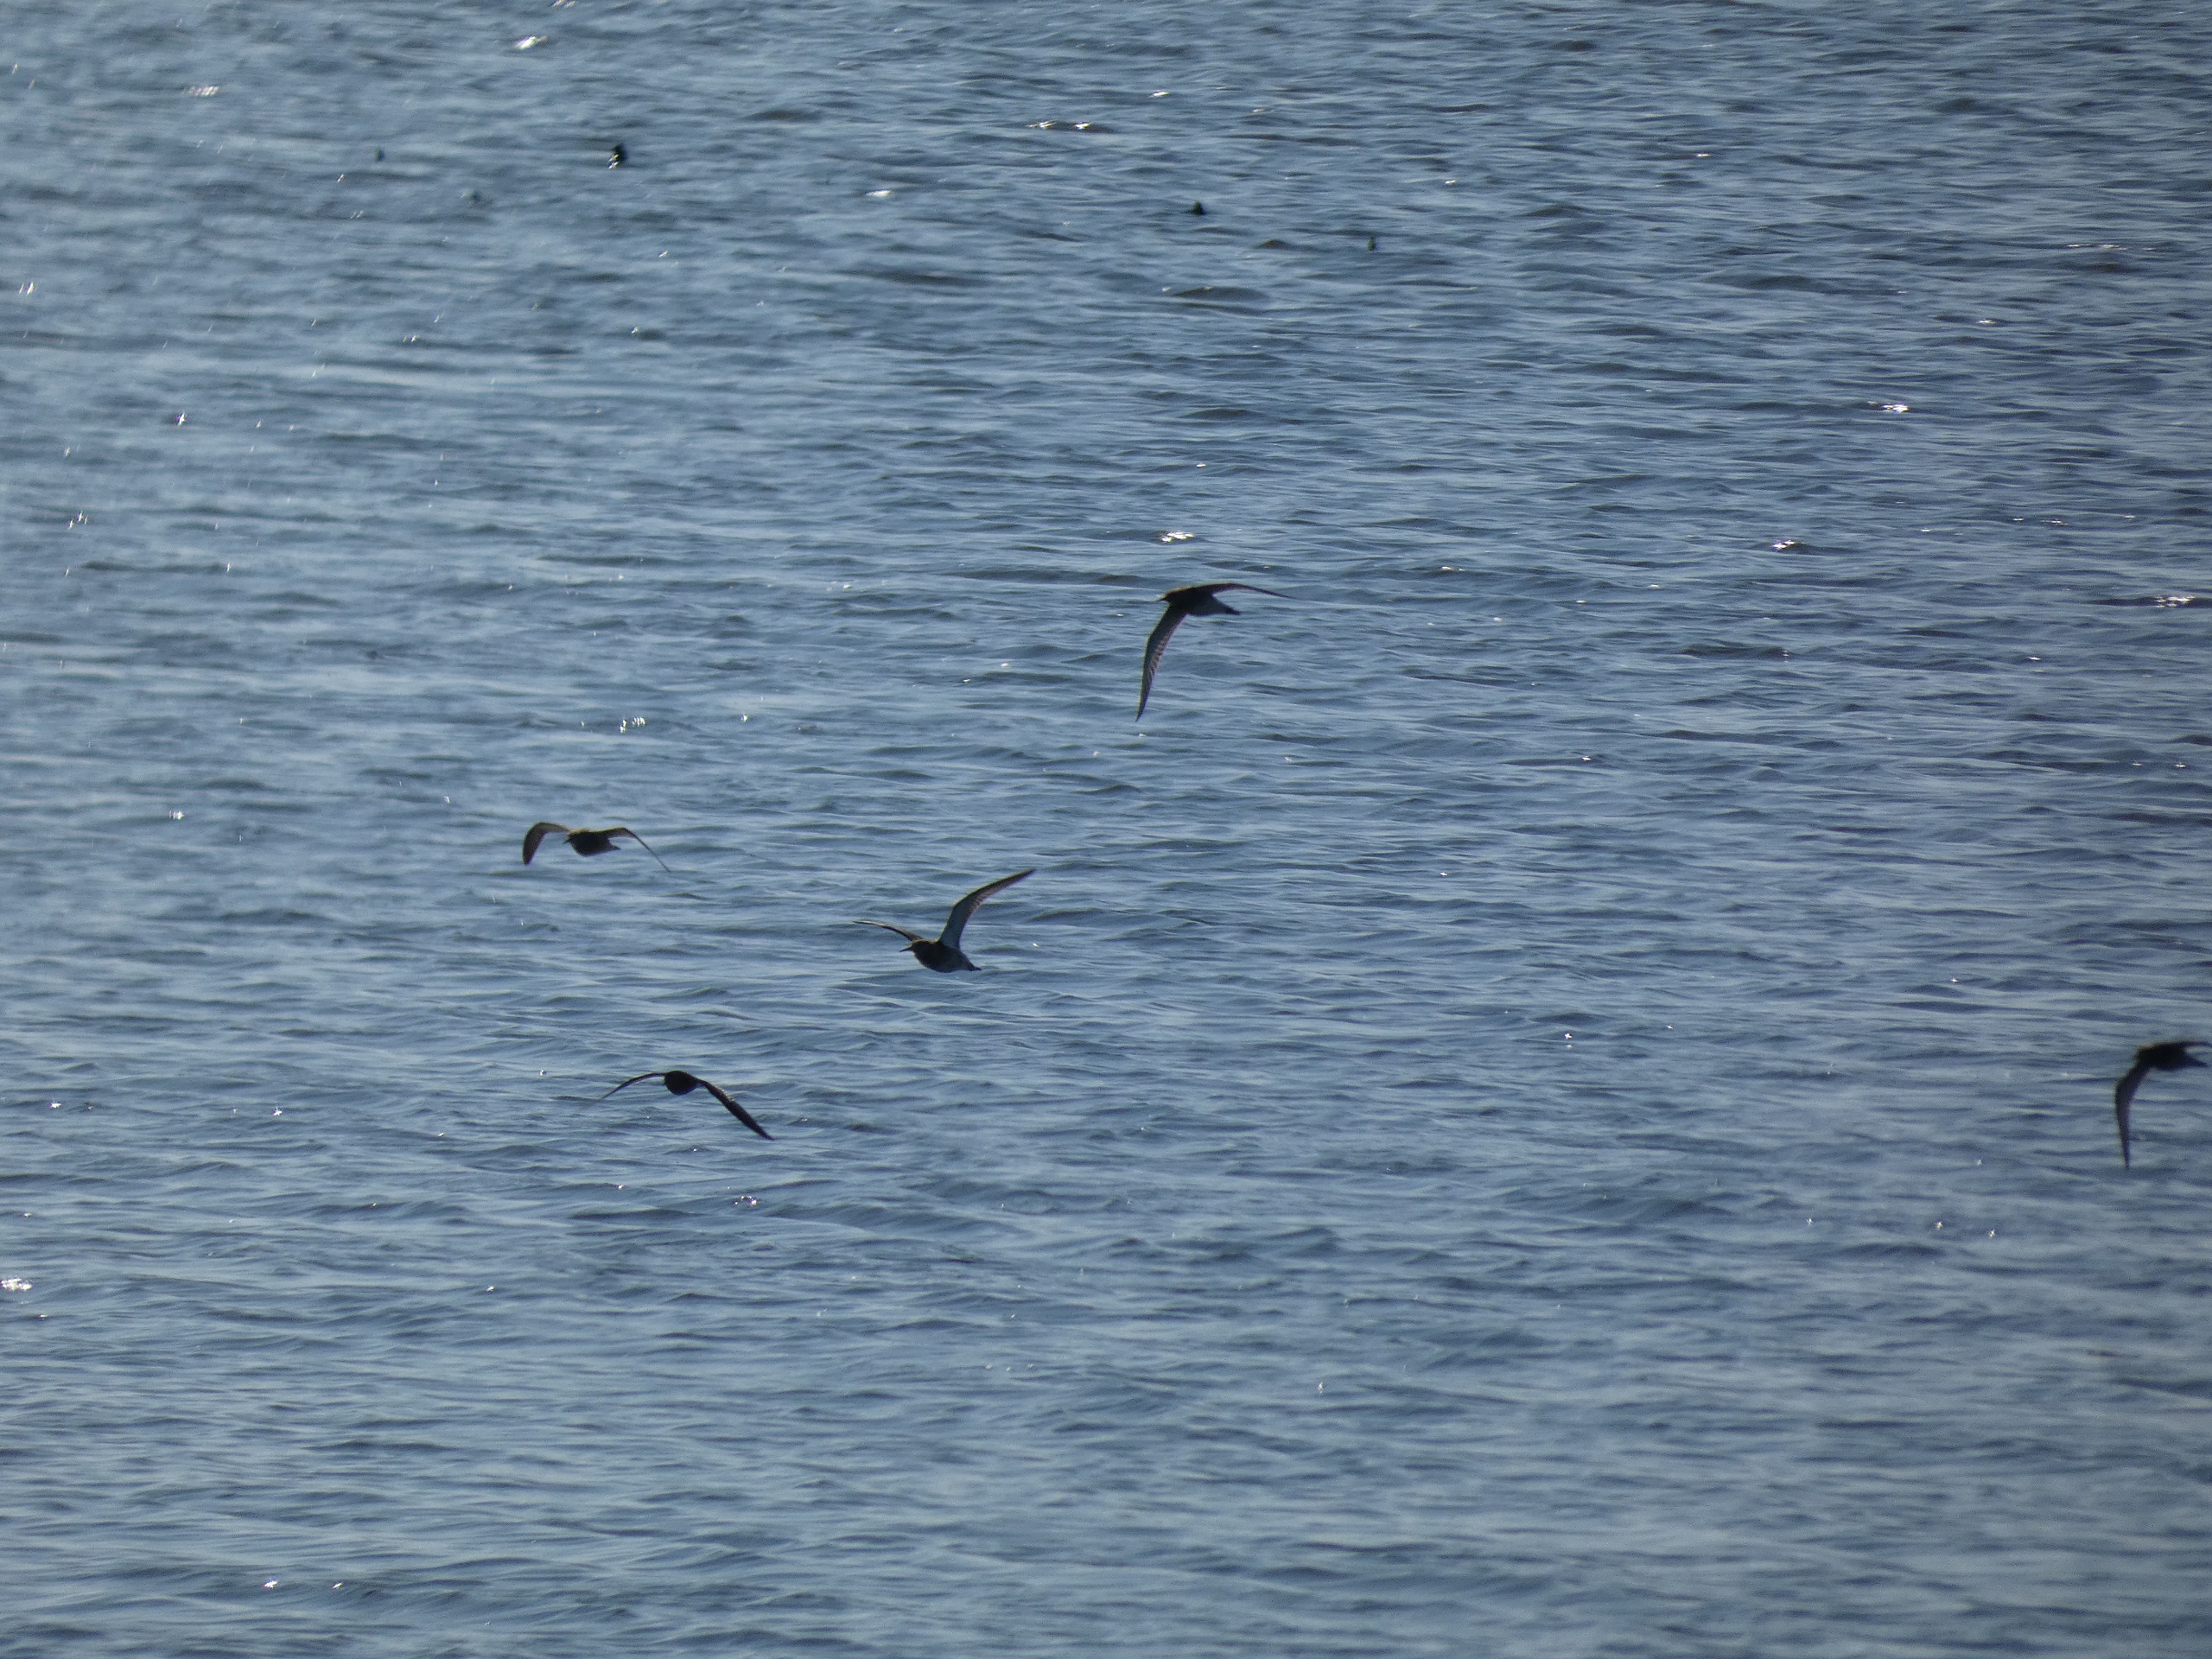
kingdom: Animalia
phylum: Chordata
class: Aves
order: Charadriiformes
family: Scolopacidae
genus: Calidris
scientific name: Calidris pugnax
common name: Brushane
